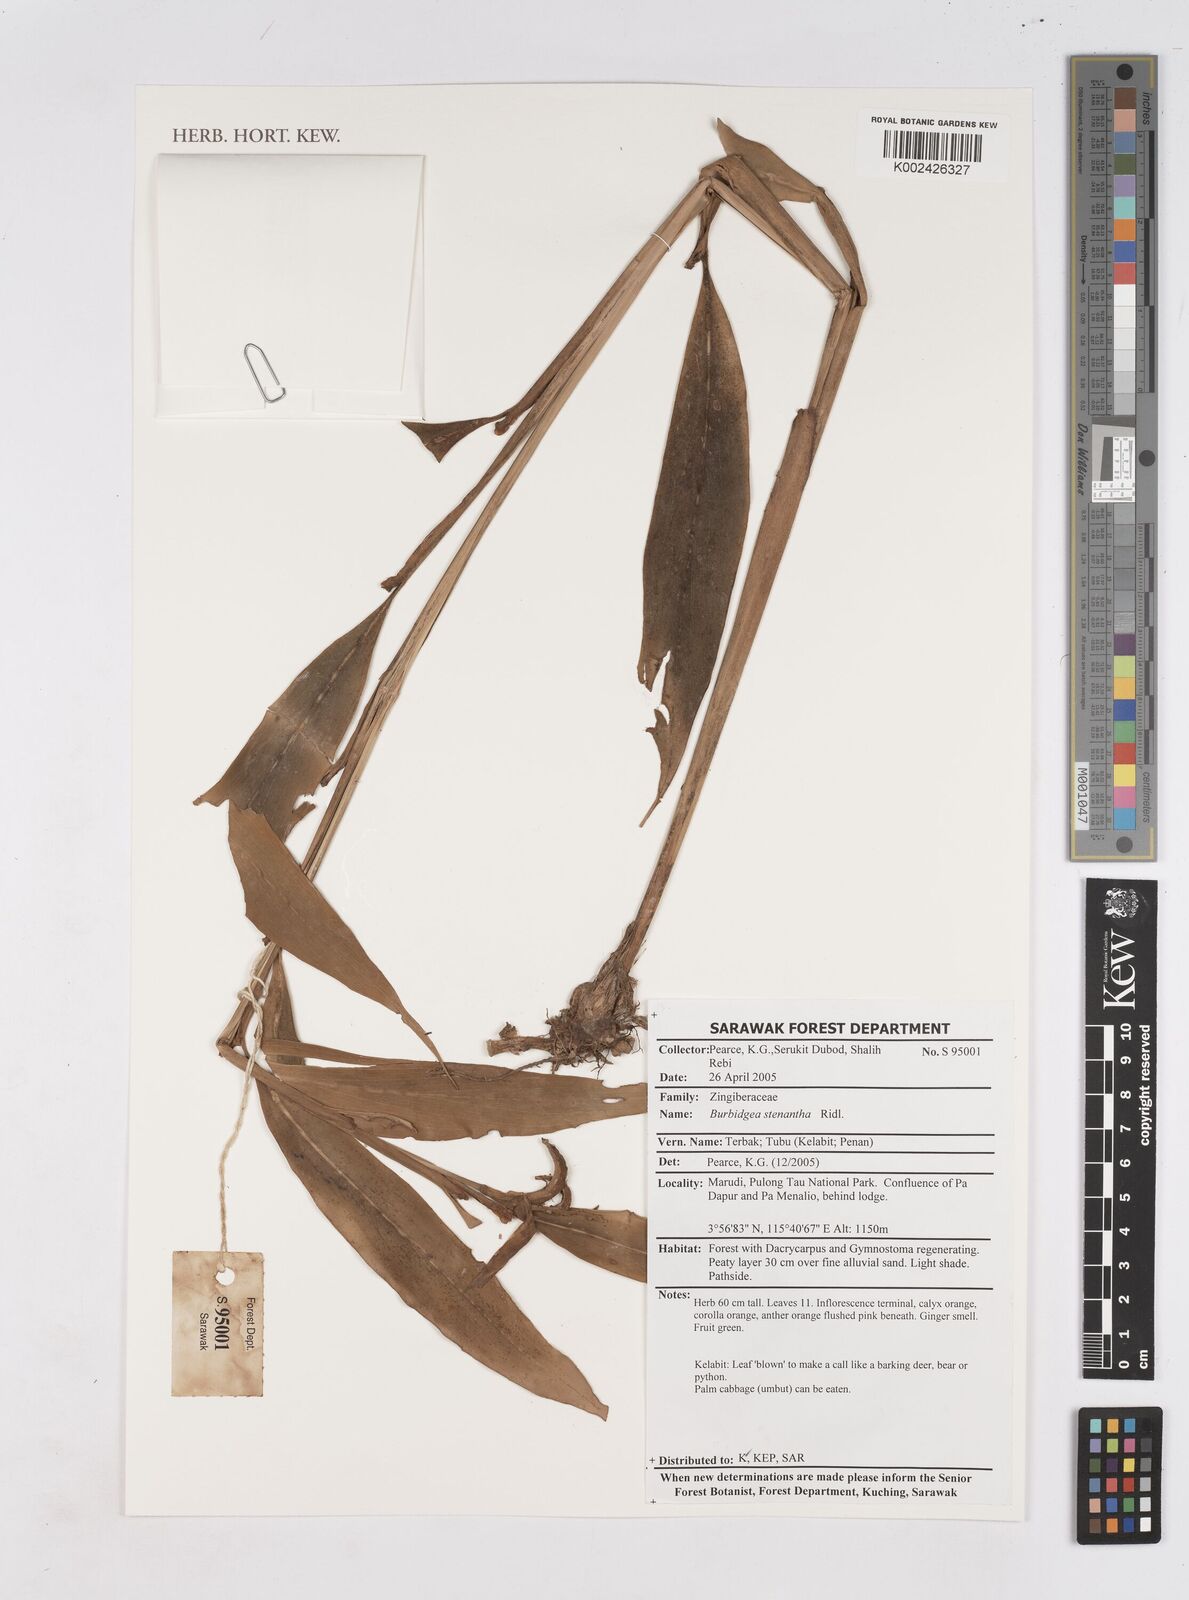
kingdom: Plantae
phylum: Tracheophyta
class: Liliopsida
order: Zingiberales
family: Zingiberaceae
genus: Burbidgea
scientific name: Burbidgea stenantha
